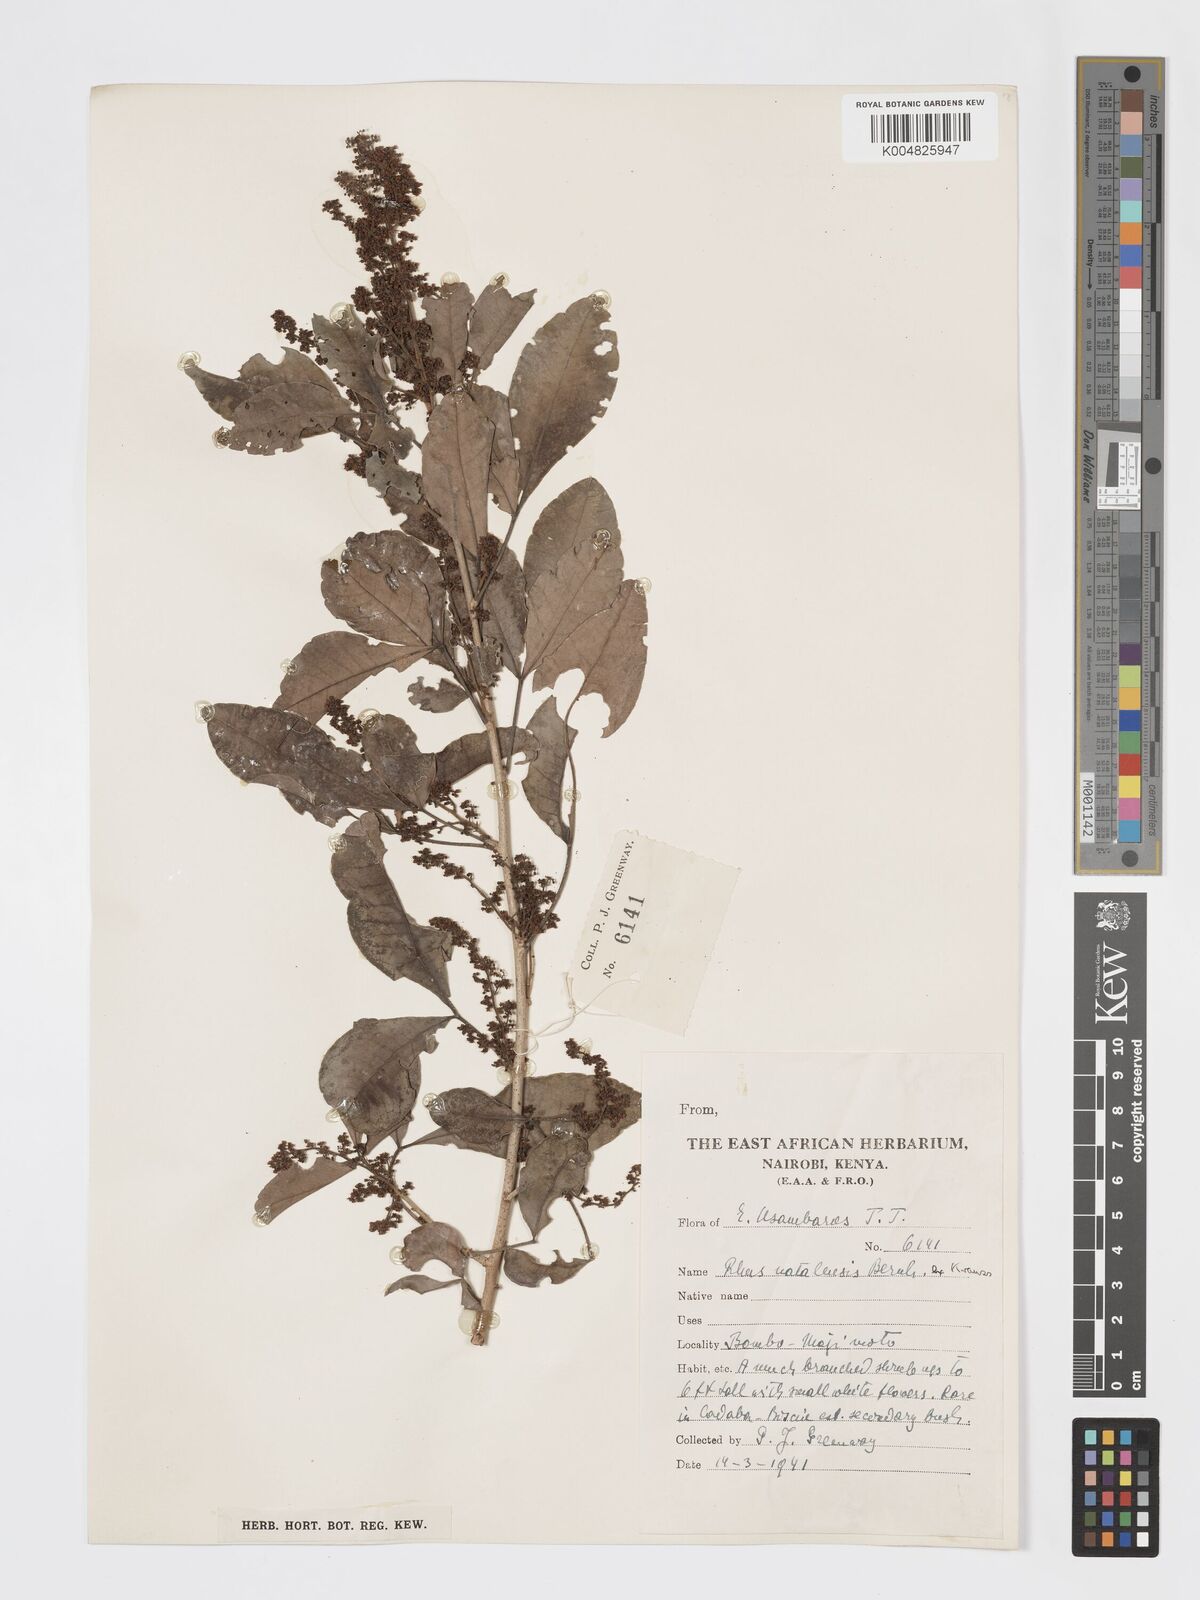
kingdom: Plantae
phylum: Tracheophyta
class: Magnoliopsida
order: Sapindales
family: Anacardiaceae
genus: Searsia
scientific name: Searsia natalensis
